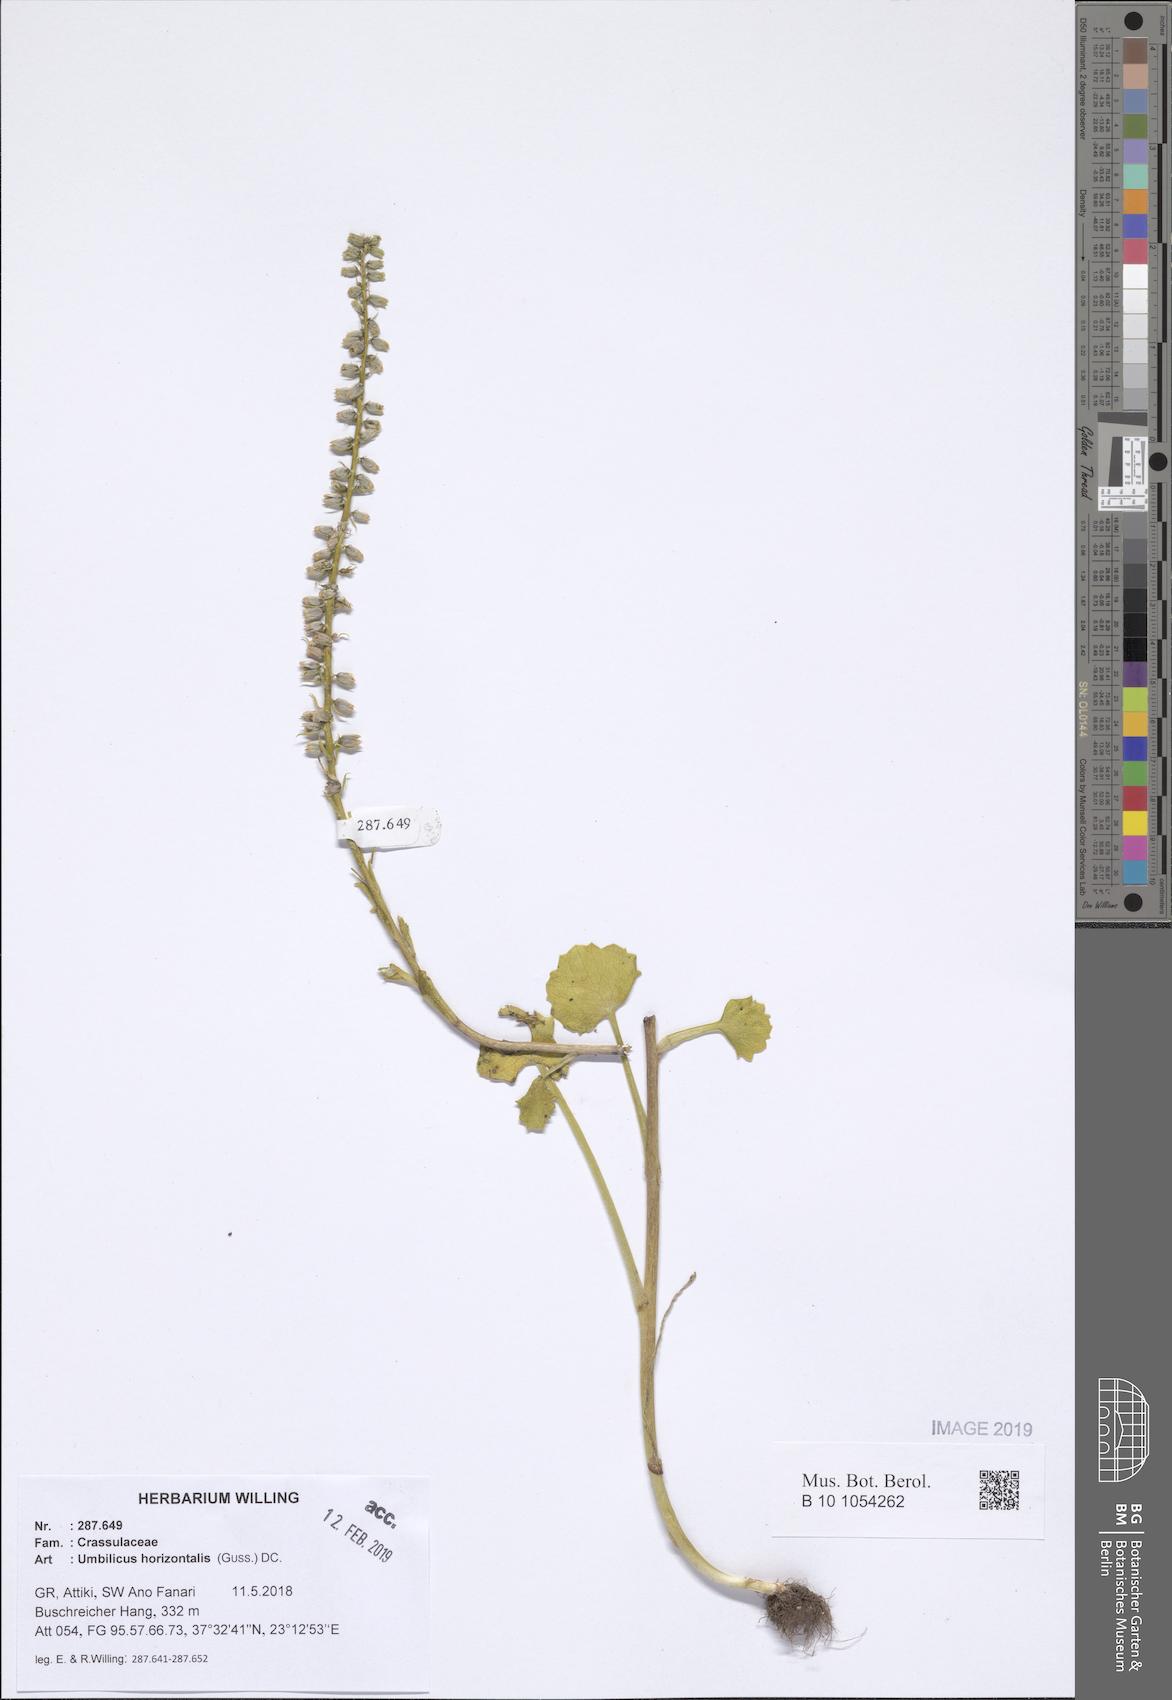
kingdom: Plantae
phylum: Tracheophyta
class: Magnoliopsida
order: Saxifragales
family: Crassulaceae
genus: Umbilicus
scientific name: Umbilicus horizontalis
